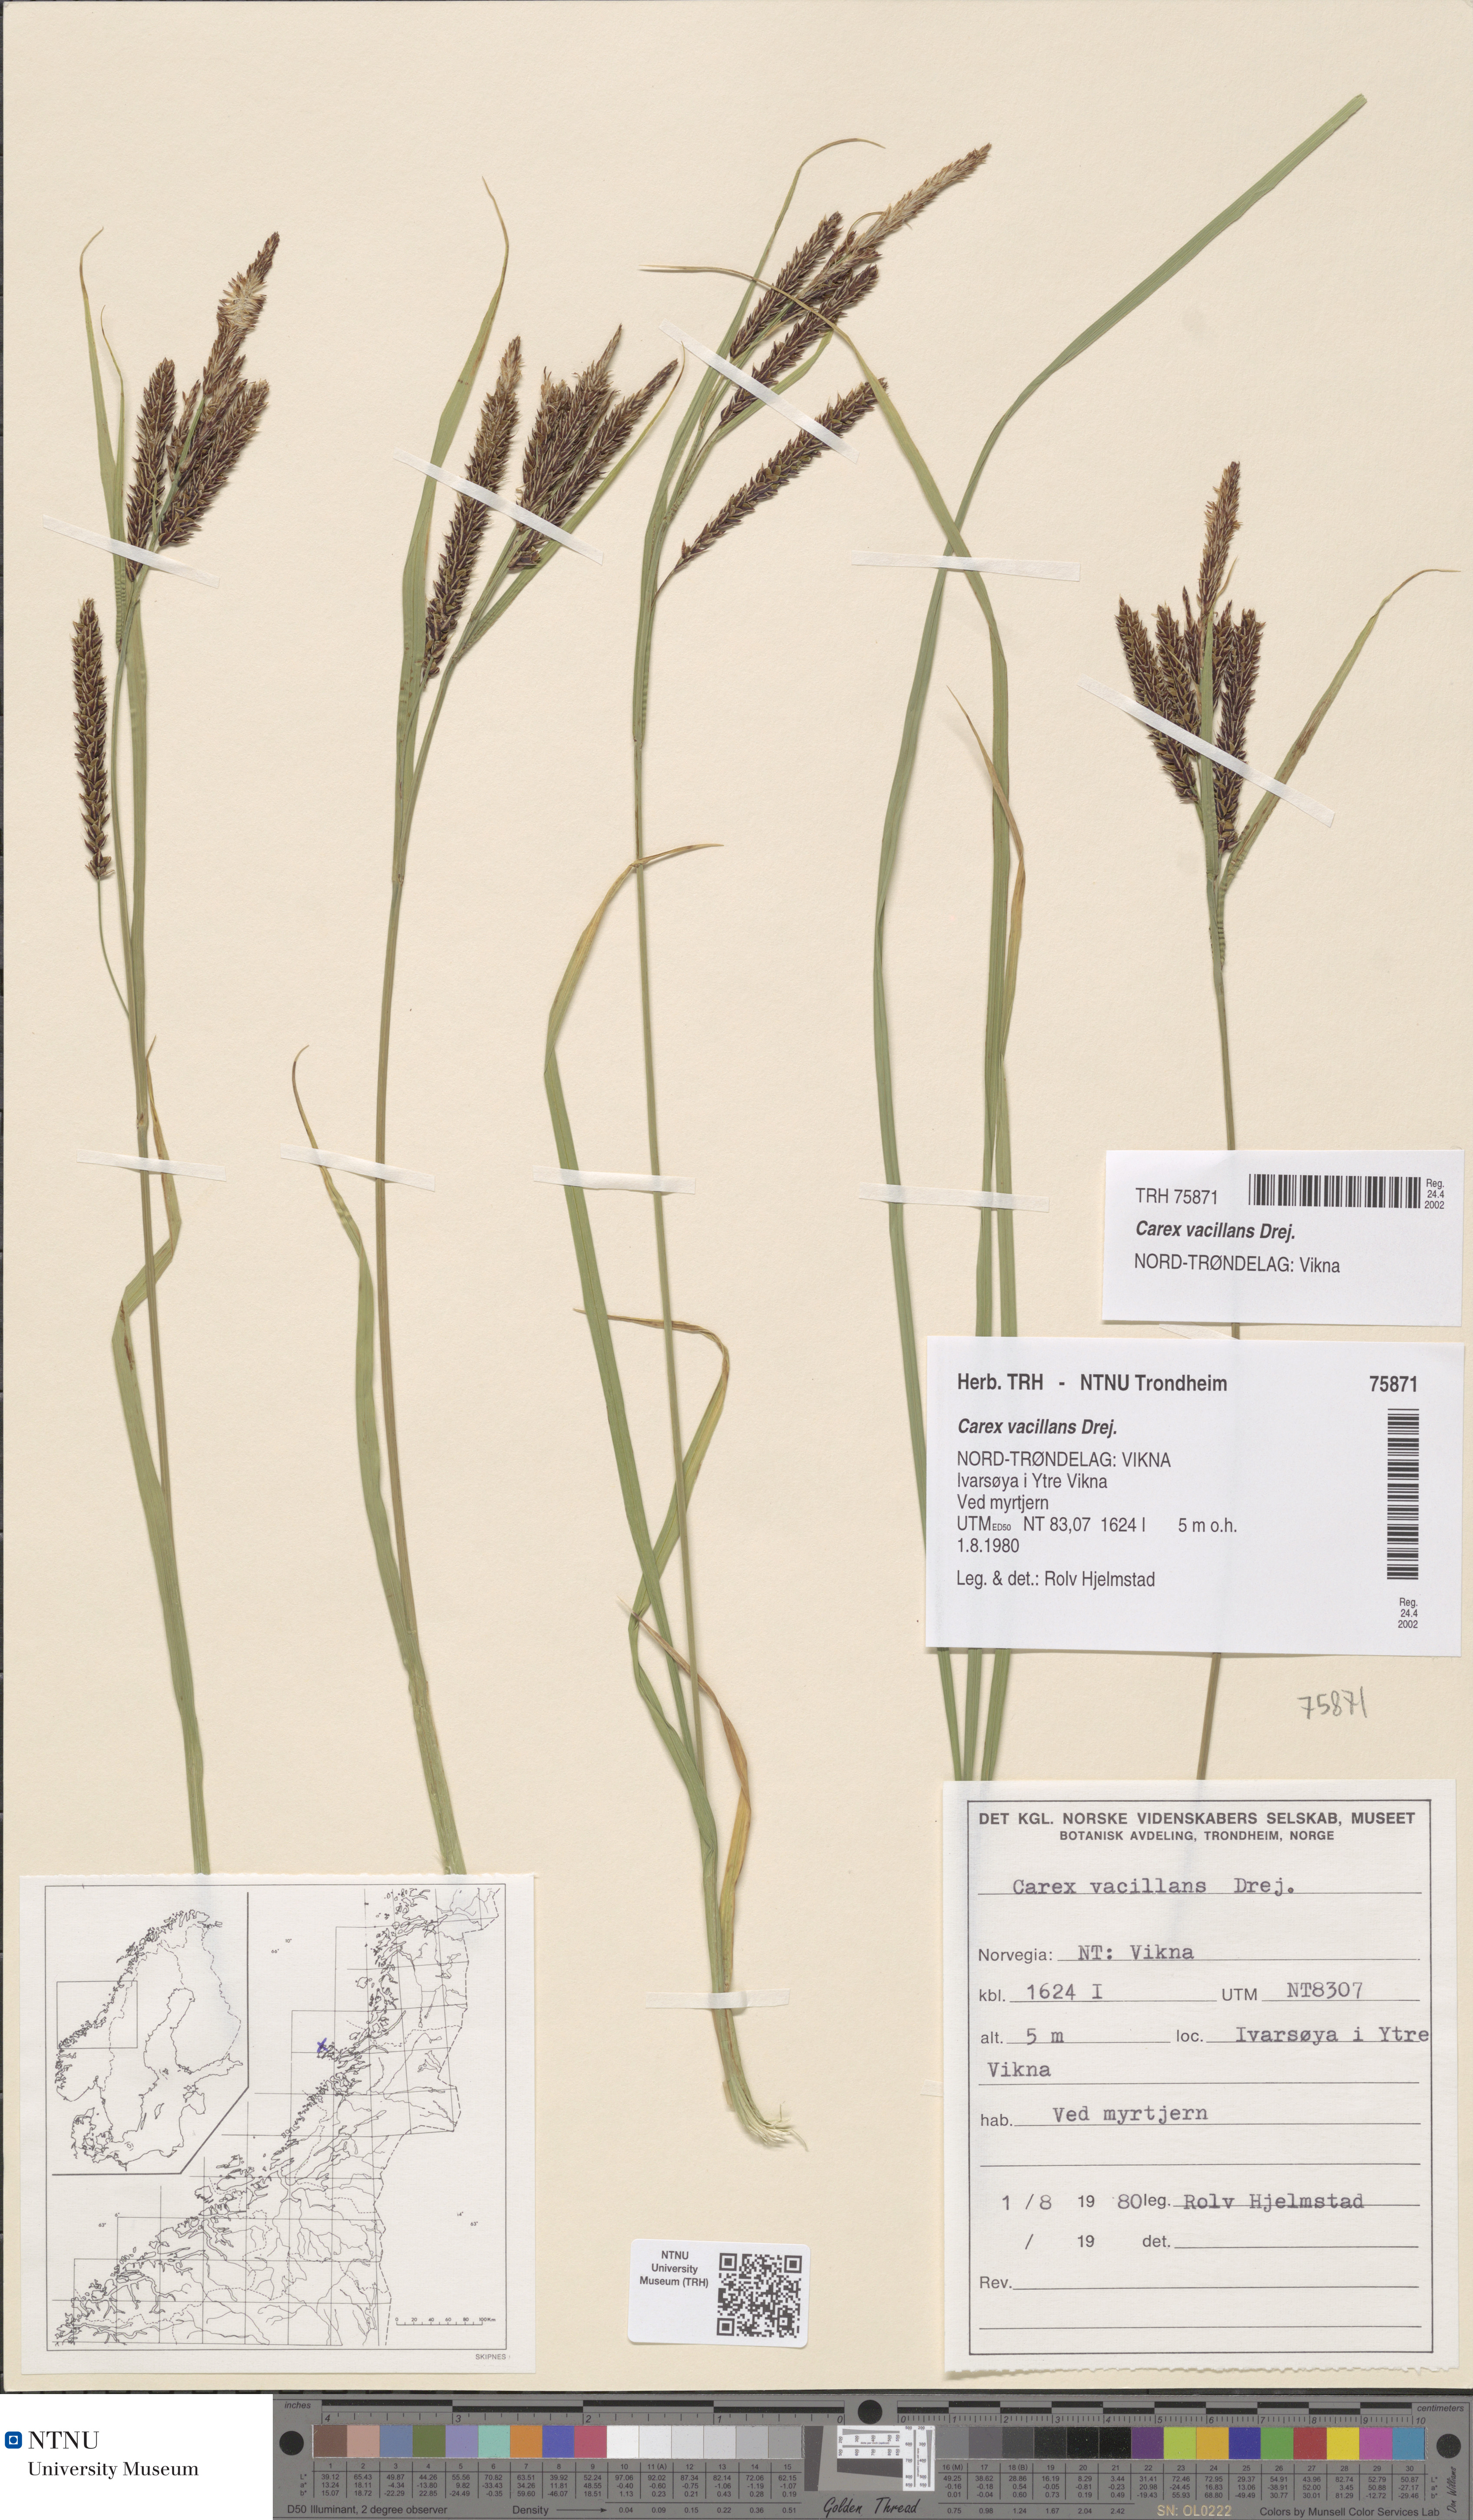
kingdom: Plantae
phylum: Tracheophyta
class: Liliopsida
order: Poales
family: Cyperaceae
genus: Carex
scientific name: Carex vacillans
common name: Sedge
